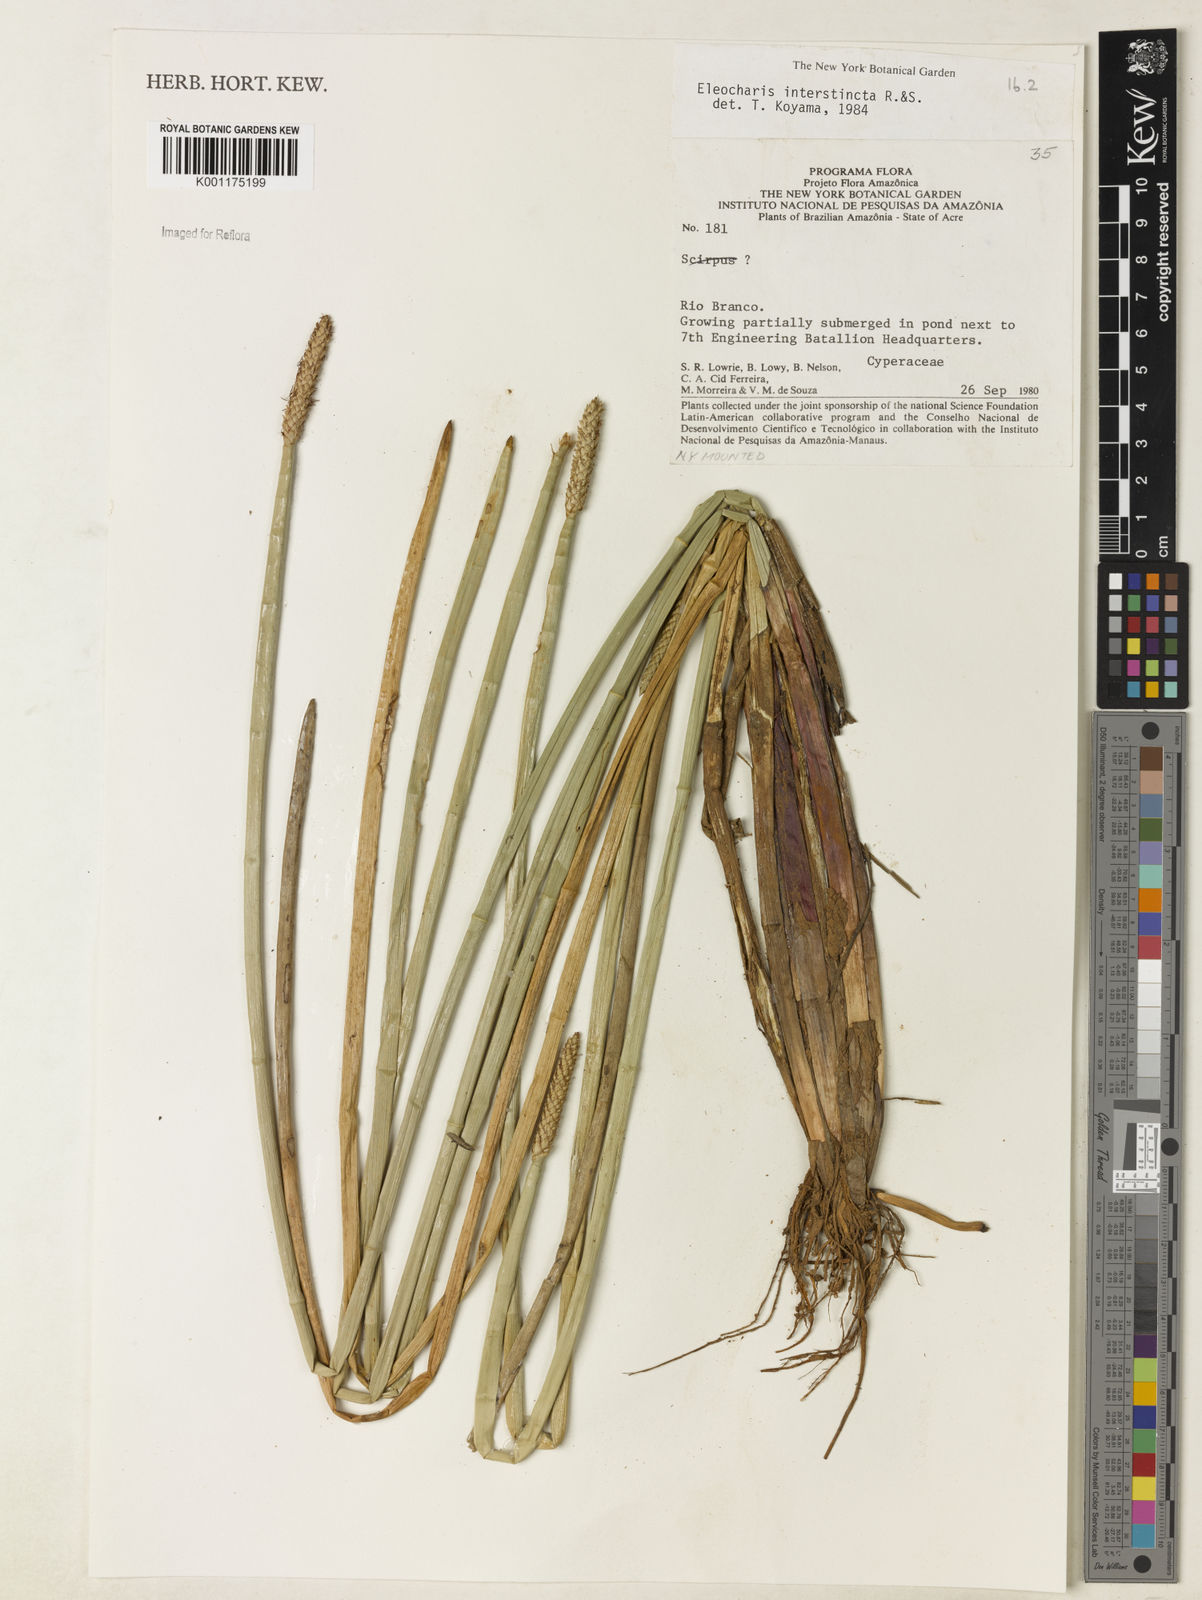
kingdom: Plantae
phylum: Tracheophyta
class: Liliopsida
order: Poales
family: Cyperaceae
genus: Eleocharis
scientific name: Eleocharis interstincta
